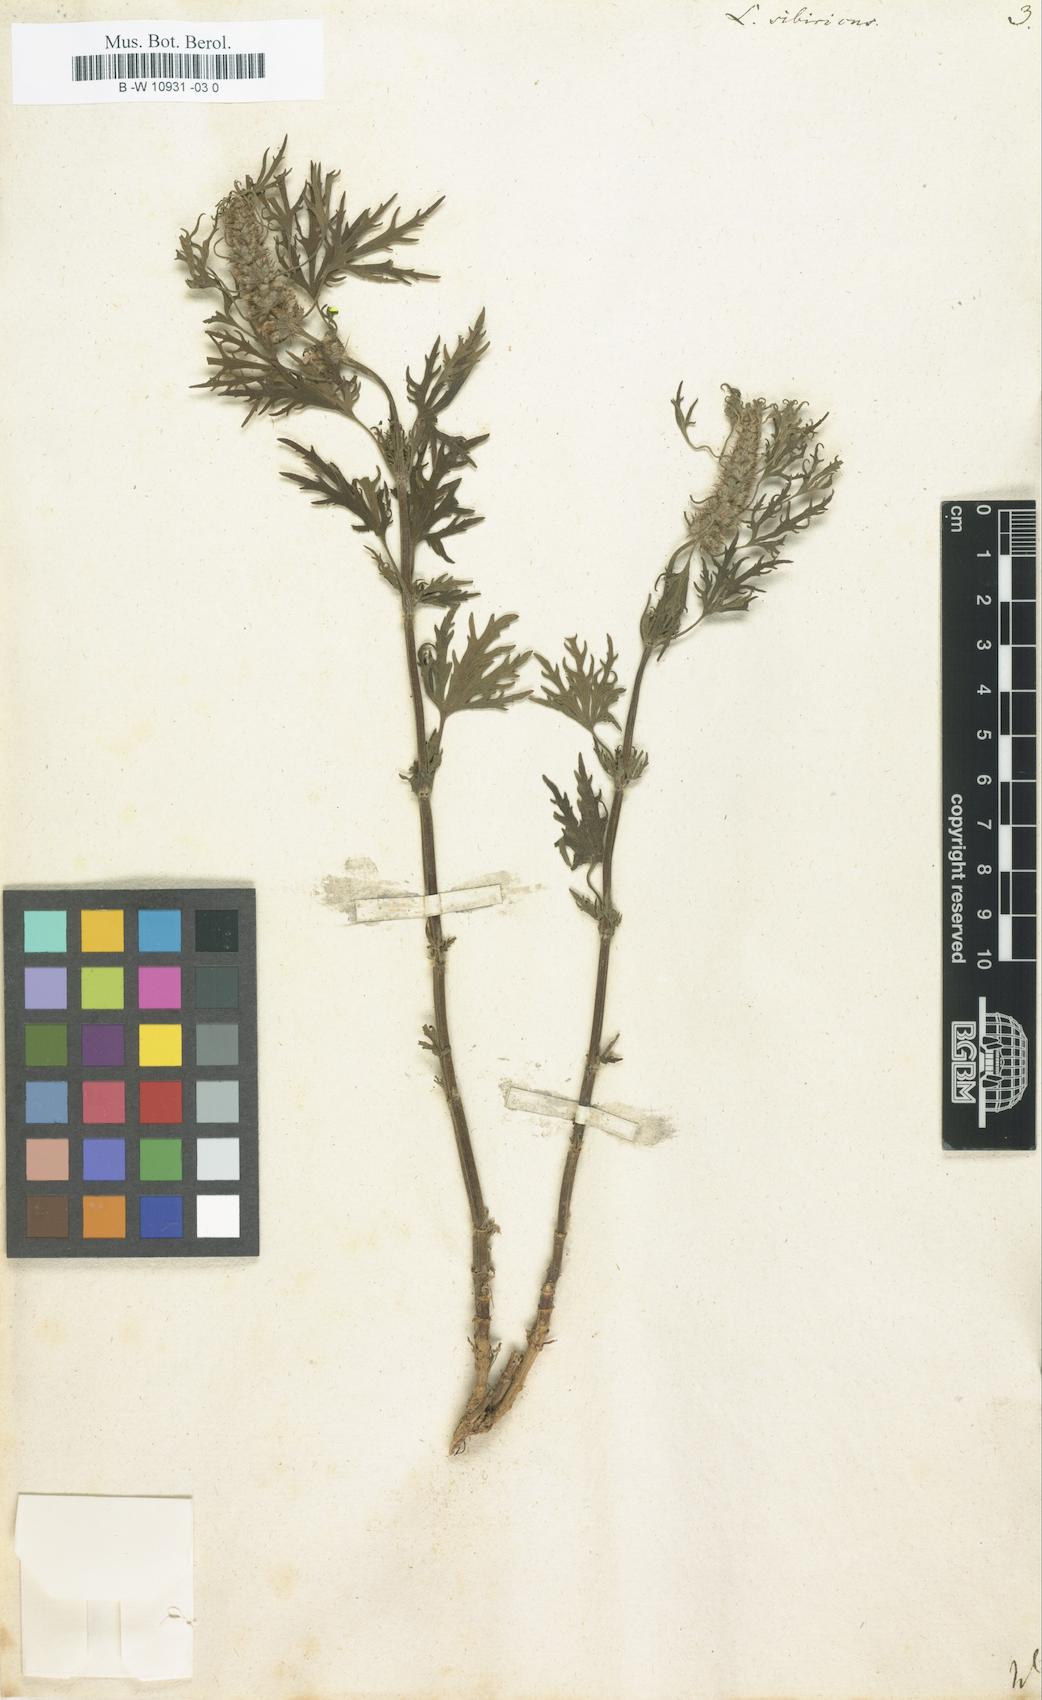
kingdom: Plantae
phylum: Tracheophyta
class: Magnoliopsida
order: Lamiales
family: Lamiaceae
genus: Leonurus
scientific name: Leonurus sibiricus
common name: Honeyweed
